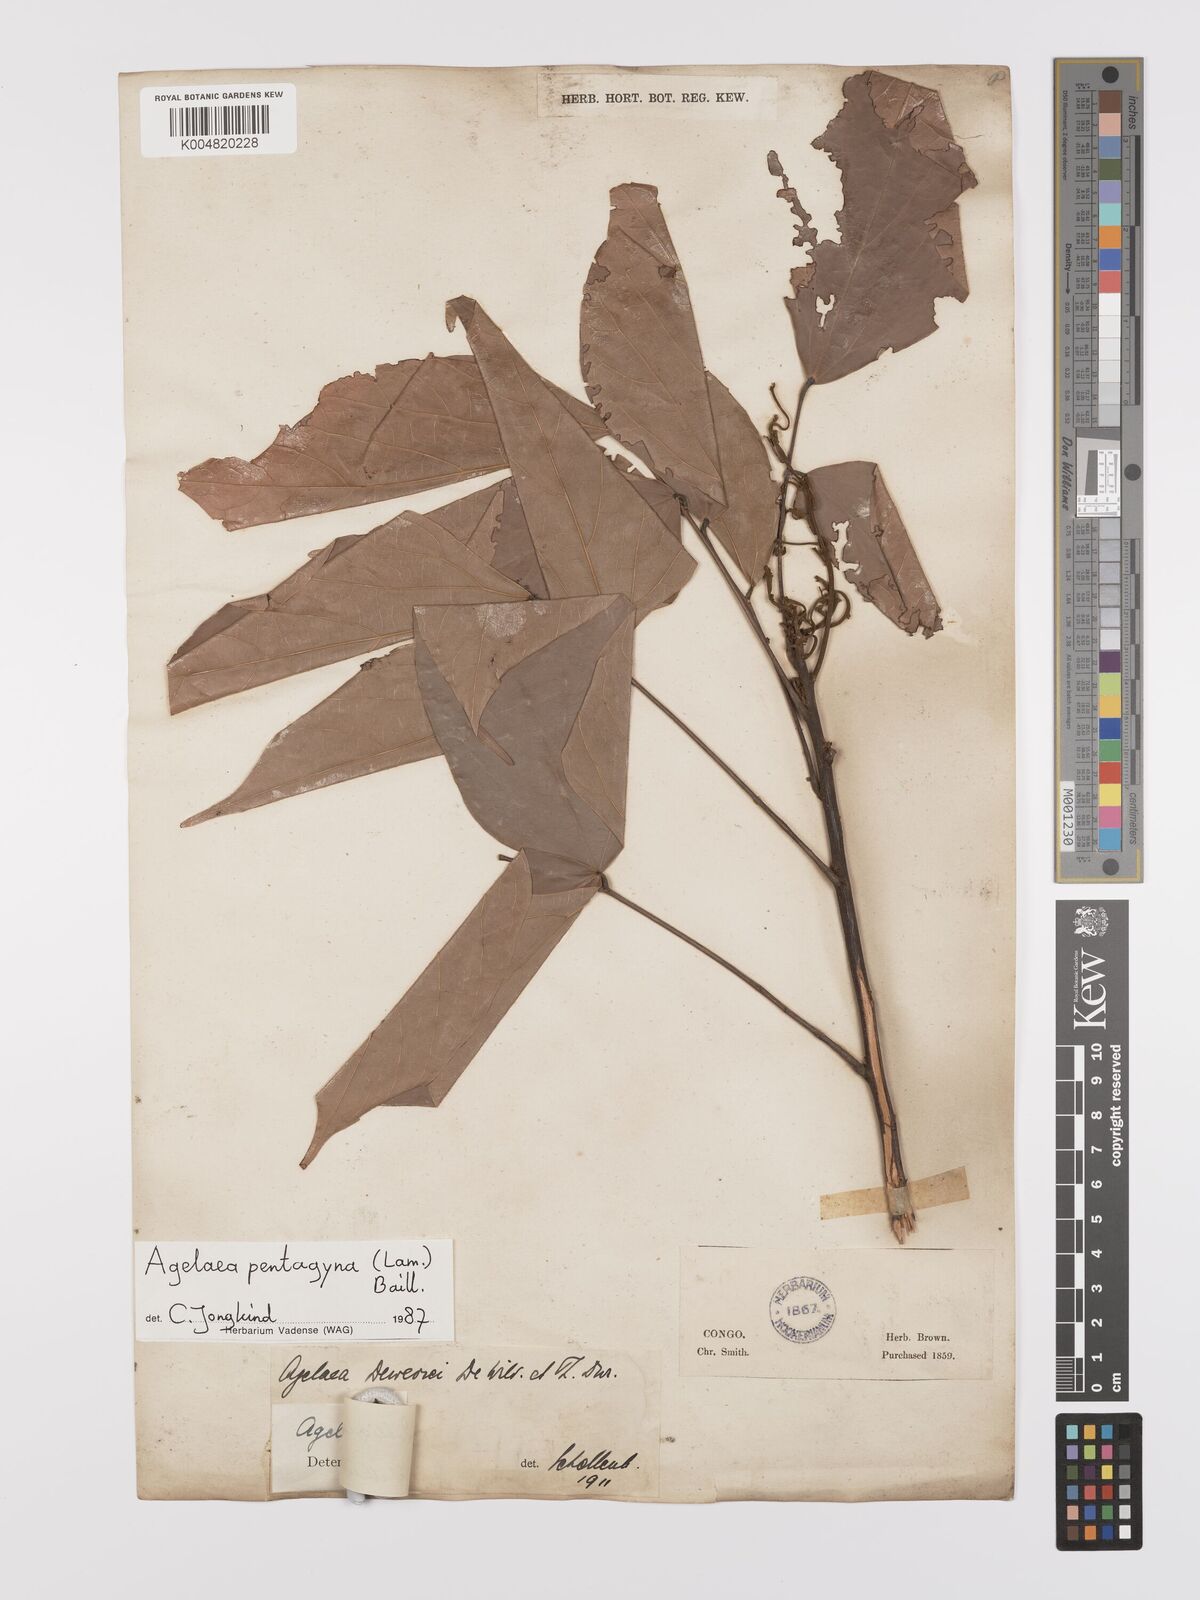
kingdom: Plantae
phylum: Tracheophyta
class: Magnoliopsida
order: Oxalidales
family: Connaraceae
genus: Agelaea
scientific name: Agelaea pentagyna
